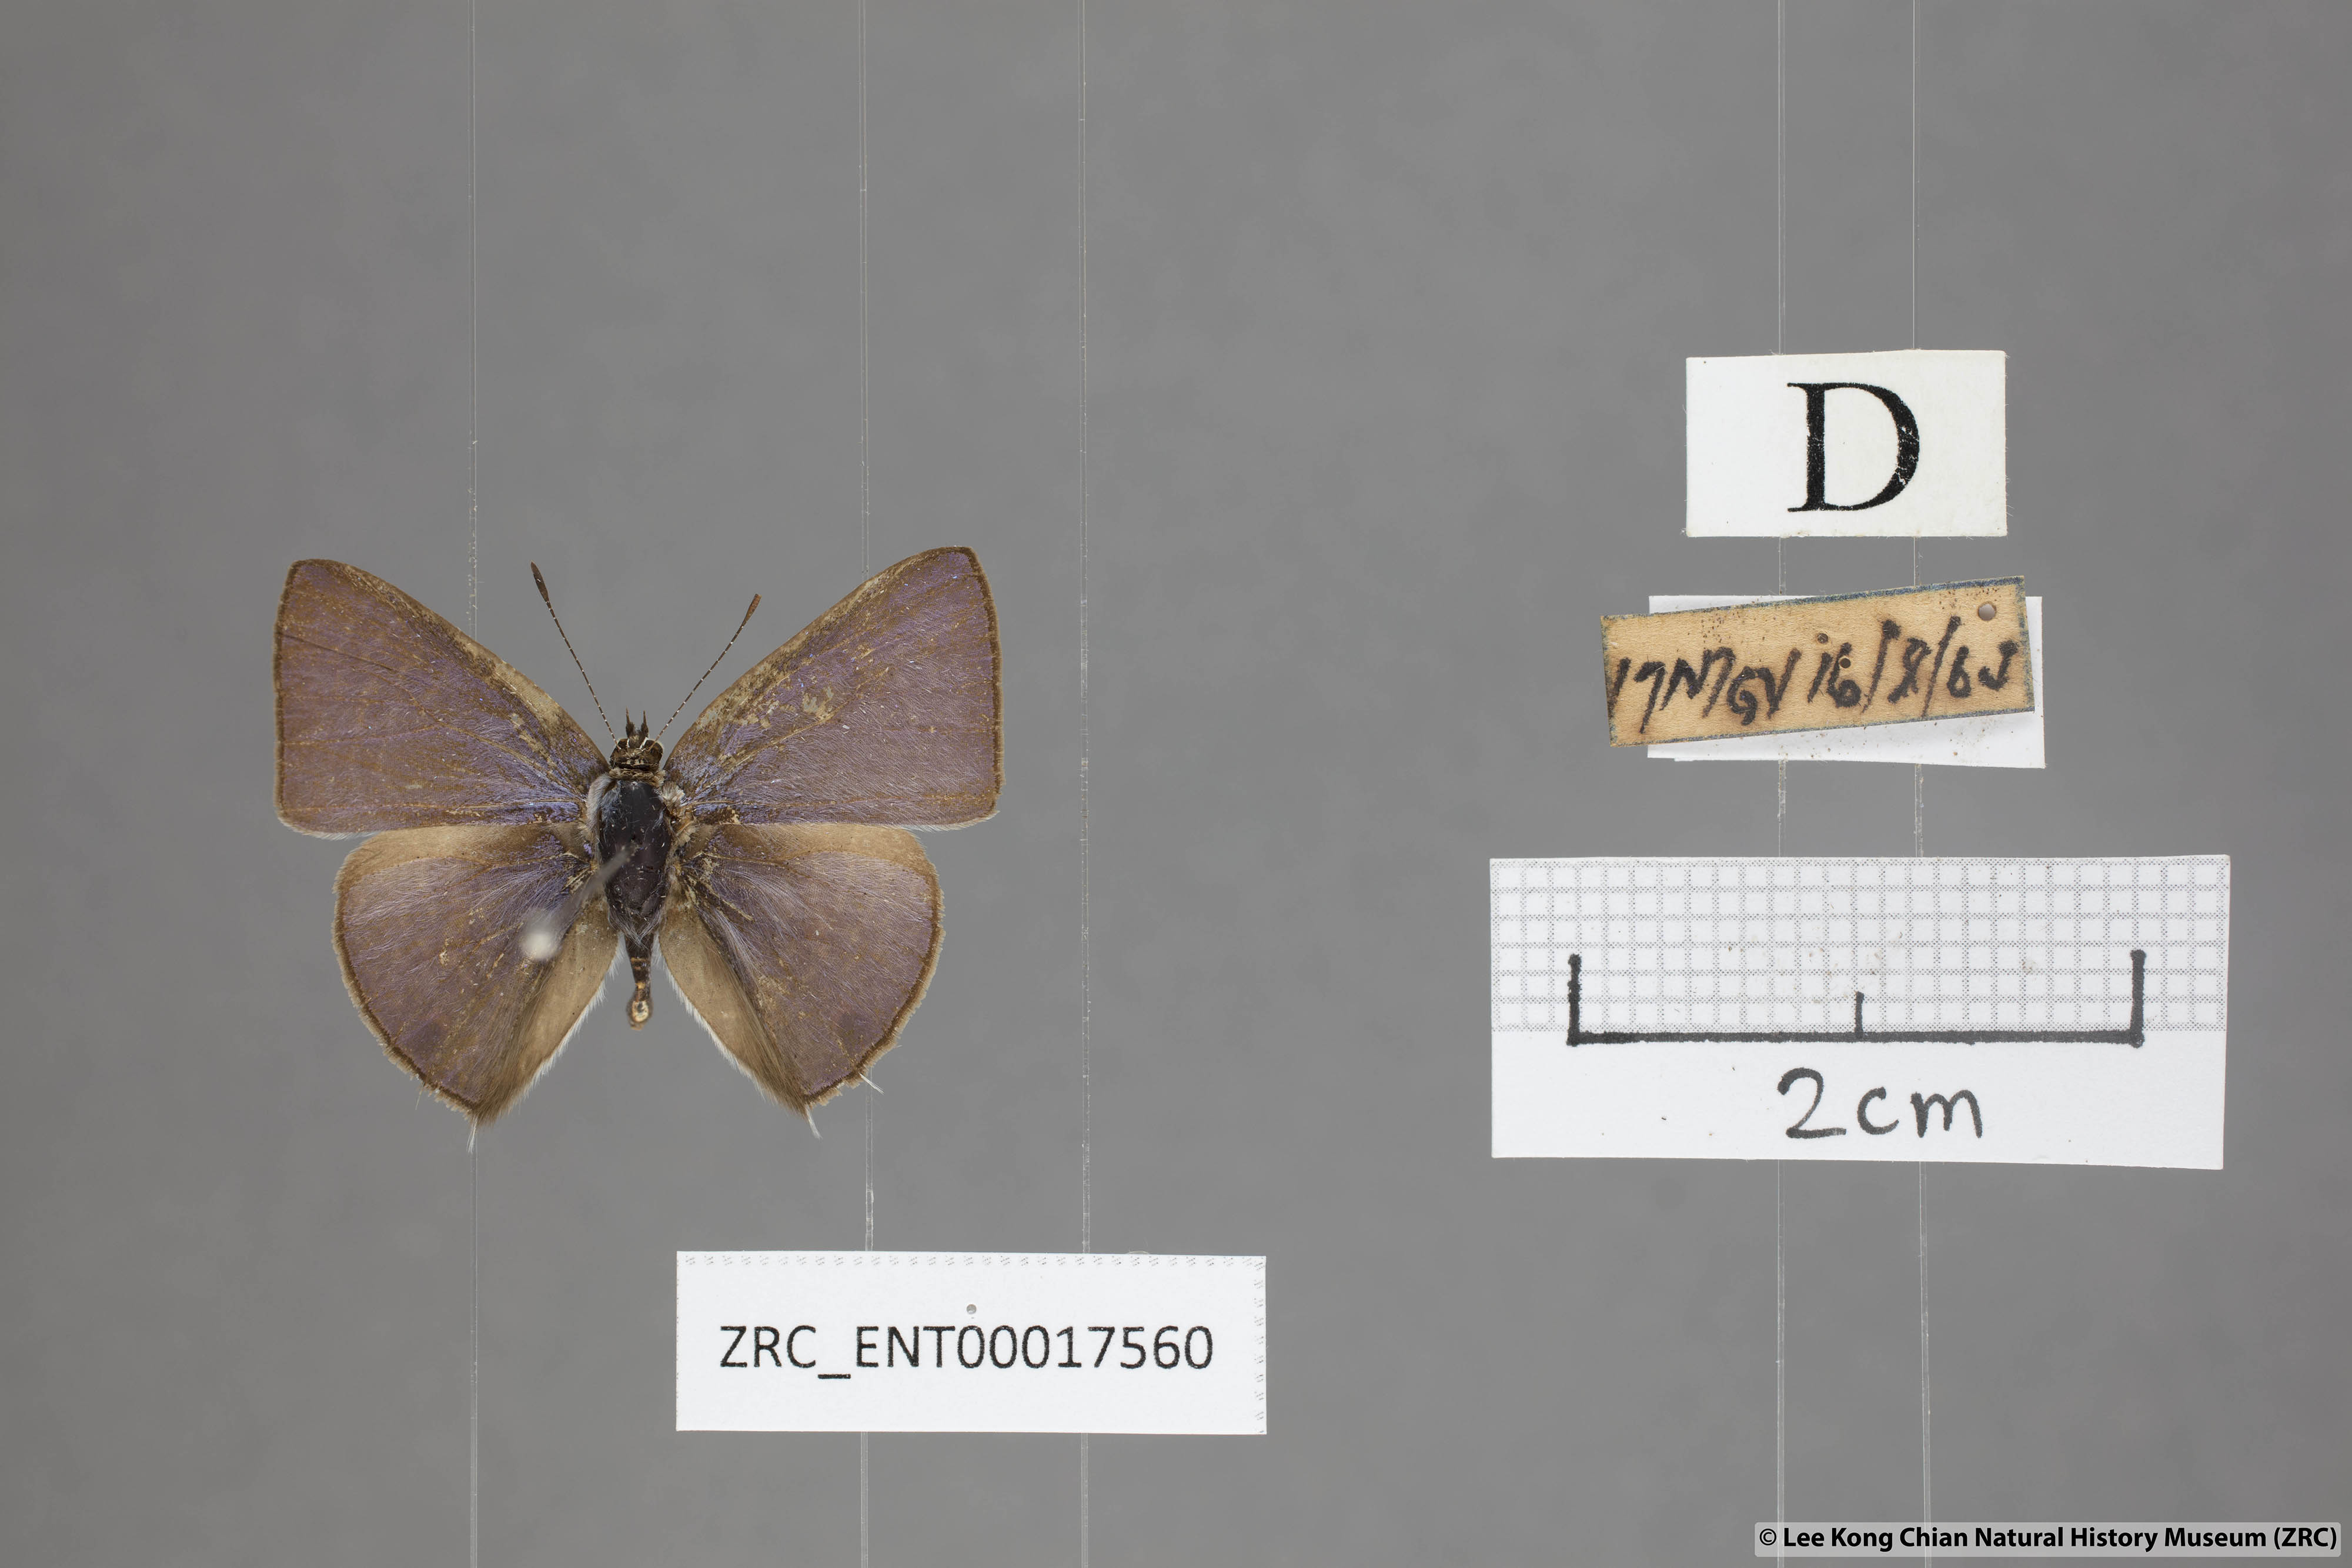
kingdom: Animalia
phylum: Arthropoda
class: Insecta
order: Lepidoptera
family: Lycaenidae
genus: Anthene
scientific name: Anthene lycaenoides
